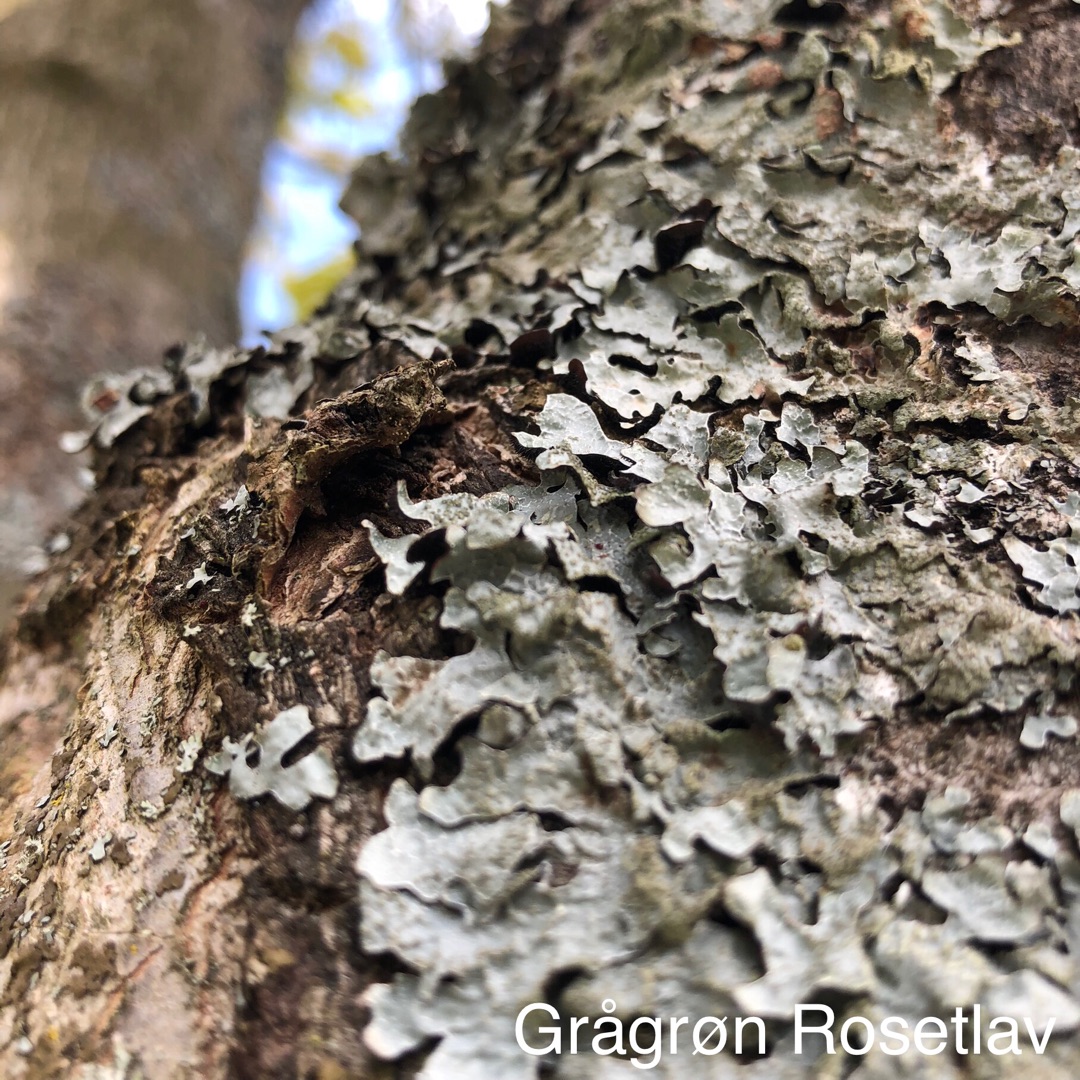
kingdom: Fungi
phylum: Ascomycota
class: Lecanoromycetes
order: Lecanorales
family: Parmeliaceae
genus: Parmelia
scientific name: Parmelia sulcata
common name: Rynket skållav
